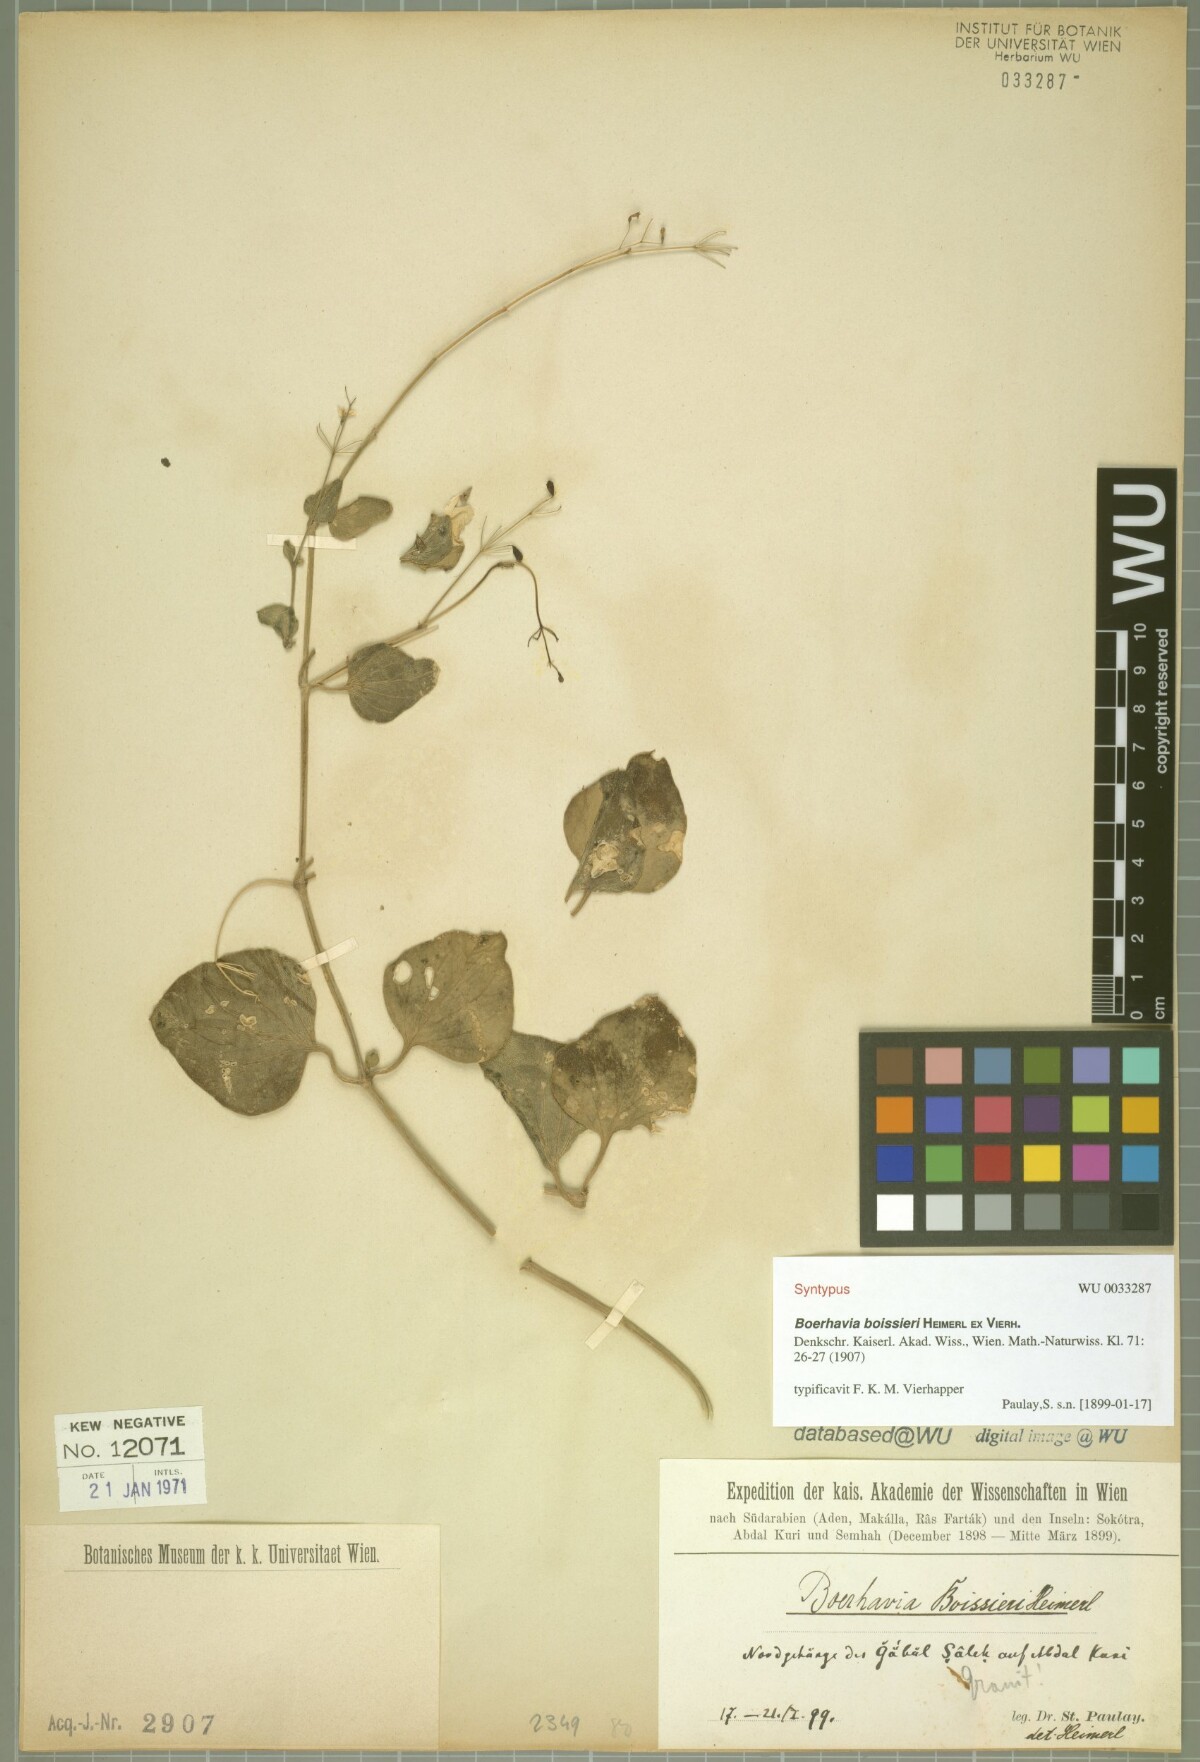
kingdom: Plantae
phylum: Tracheophyta
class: Magnoliopsida
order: Caryophyllales
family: Nyctaginaceae
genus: Commicarpus
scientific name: Commicarpus boissieri
